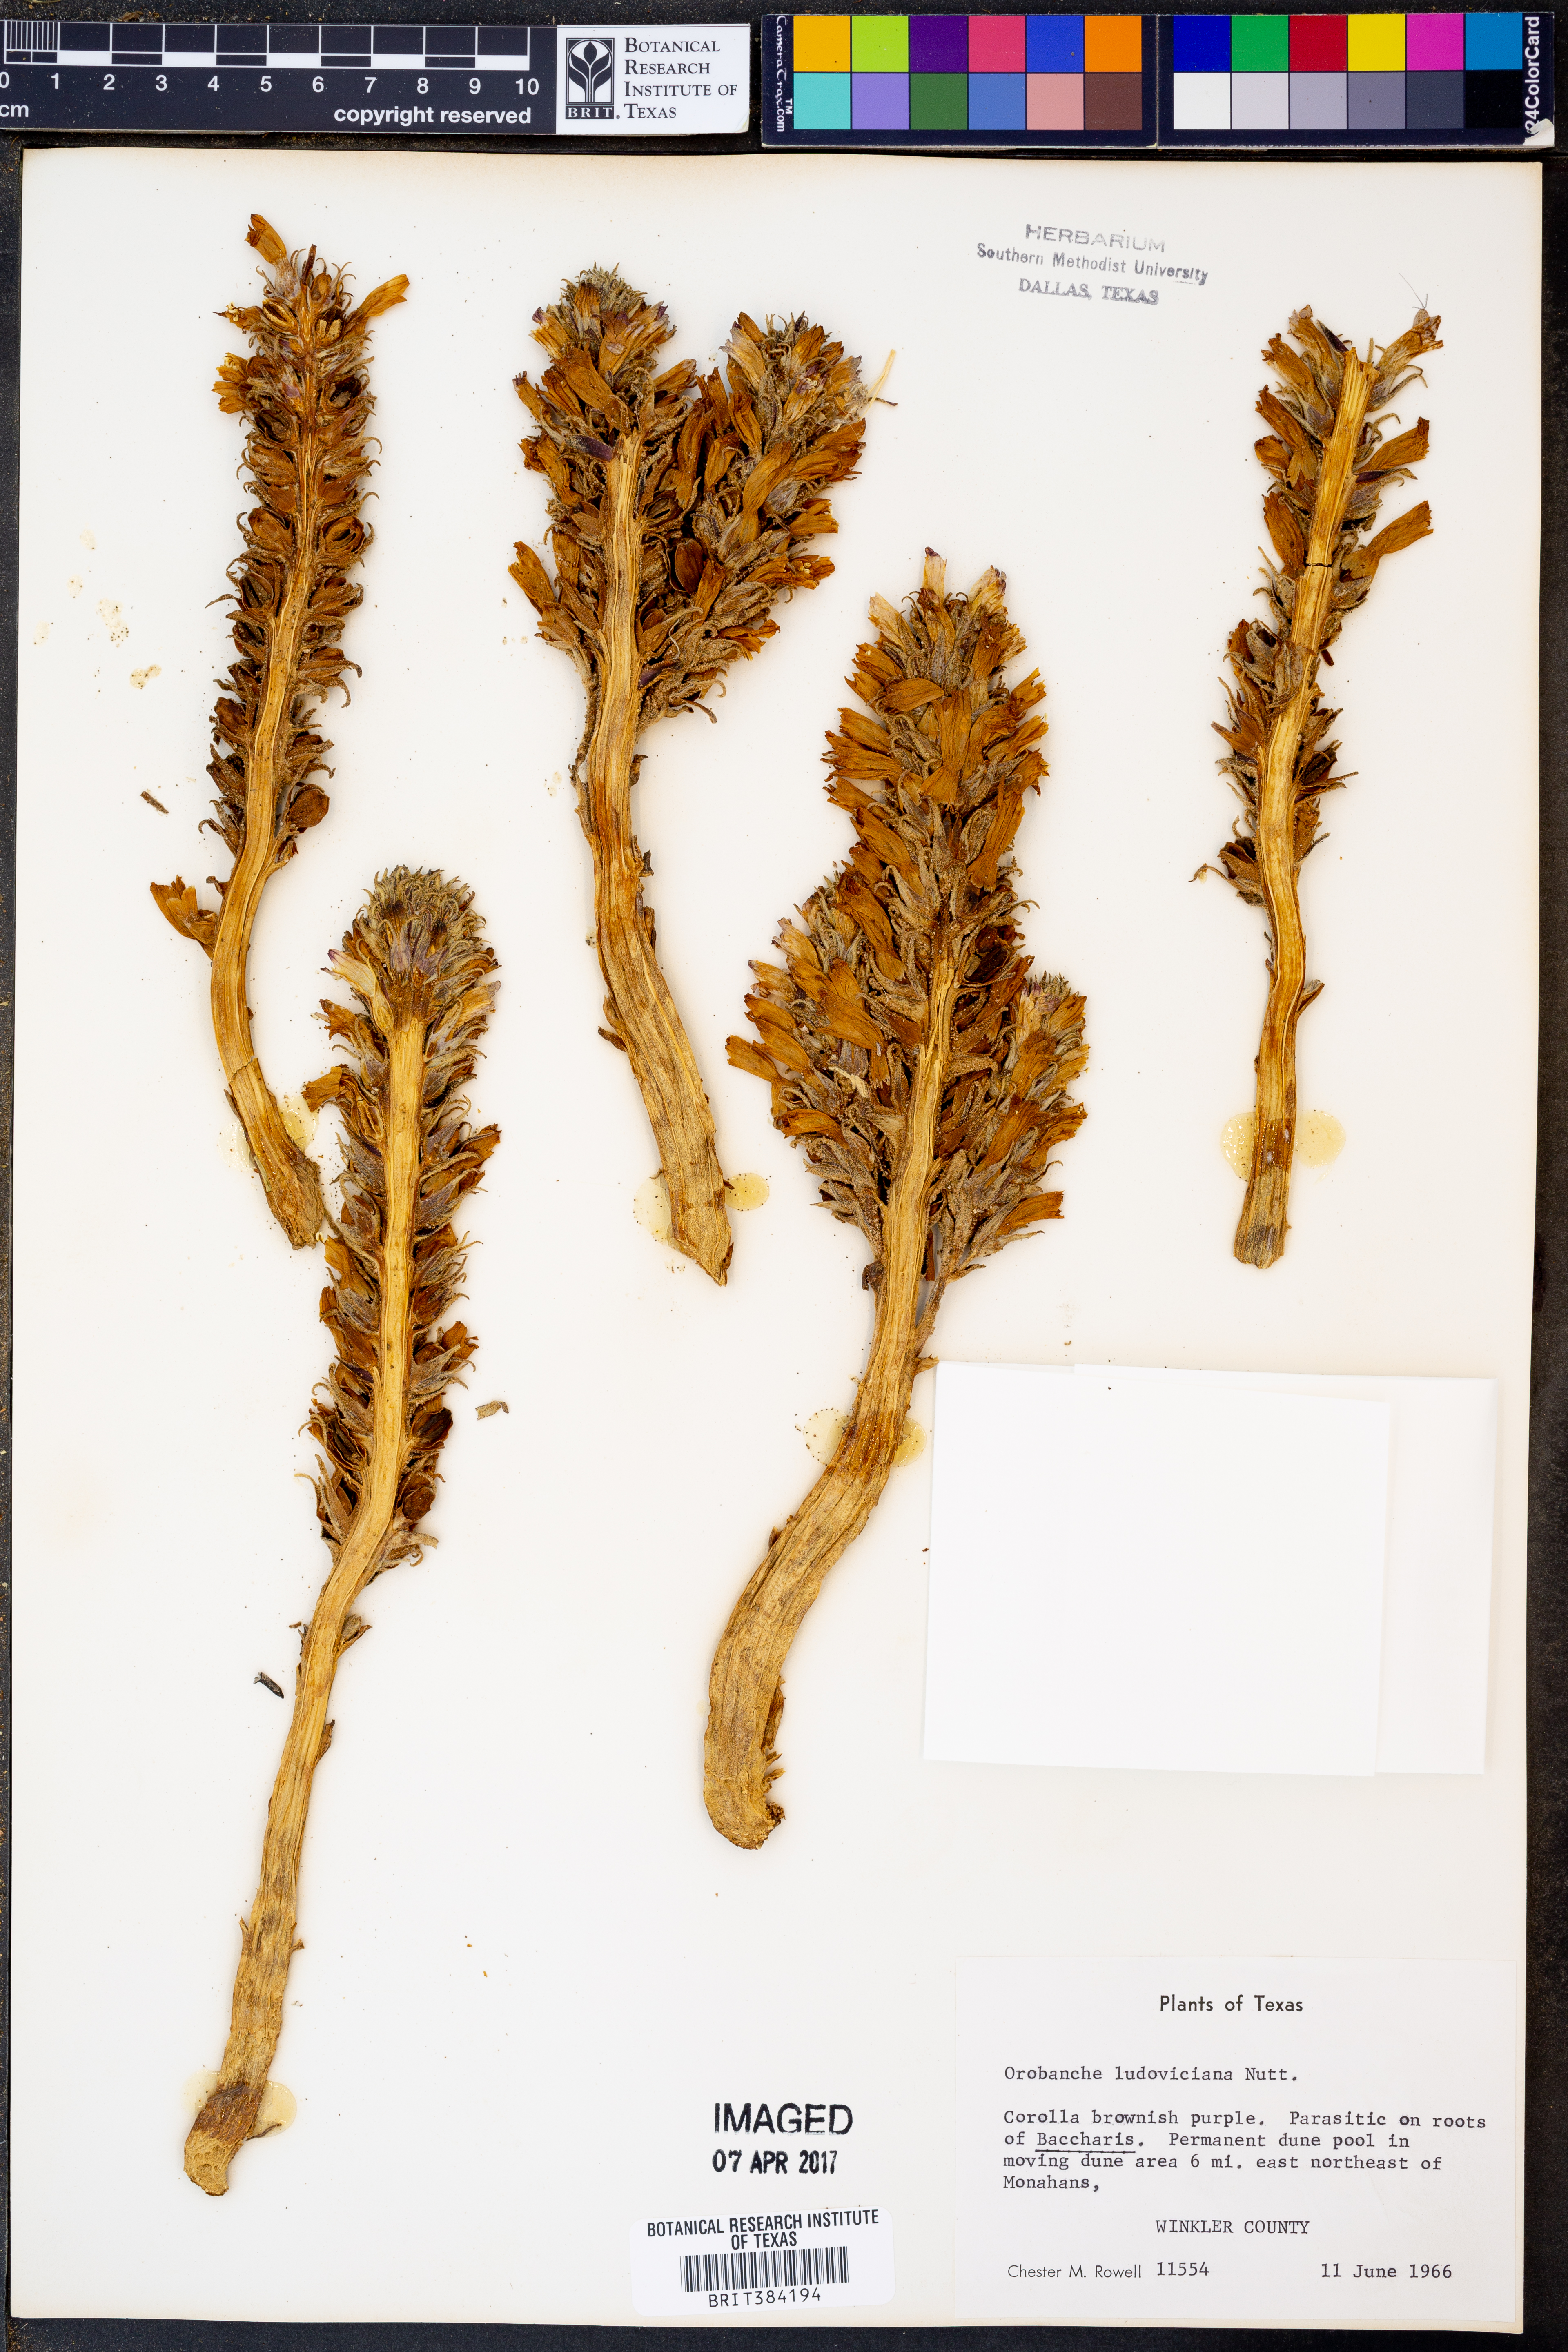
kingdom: Plantae
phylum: Tracheophyta
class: Magnoliopsida
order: Lamiales
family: Orobanchaceae
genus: Aphyllon
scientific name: Aphyllon ludovicianum
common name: Louisiana broomrape
